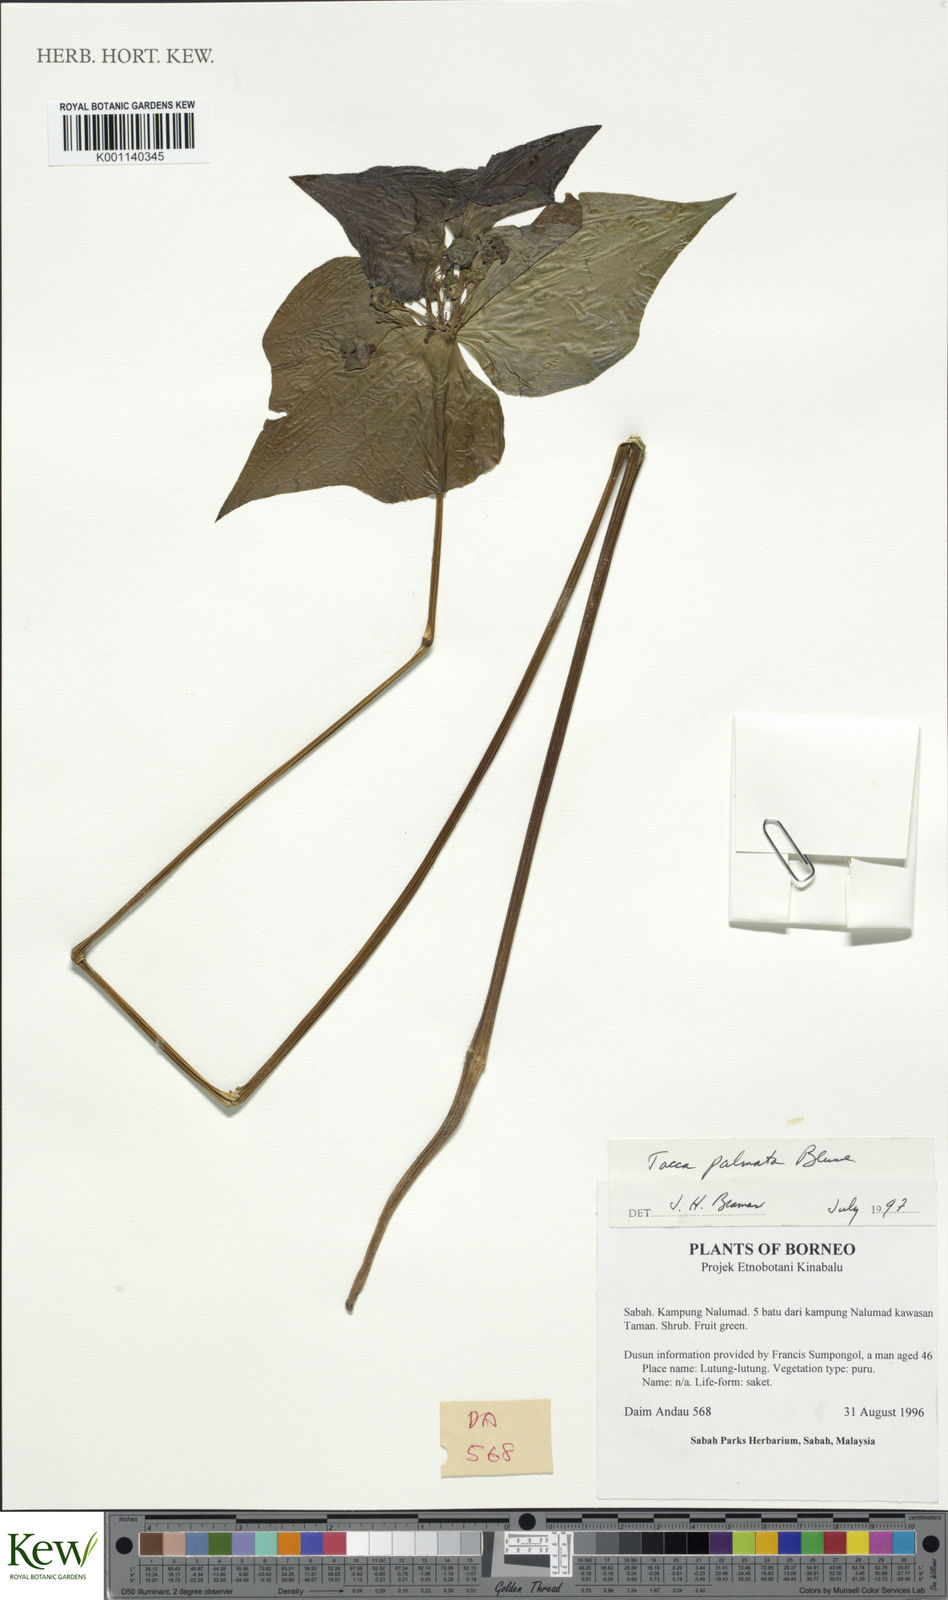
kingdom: Plantae
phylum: Tracheophyta
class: Liliopsida
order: Dioscoreales
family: Dioscoreaceae
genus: Tacca
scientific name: Tacca palmata
